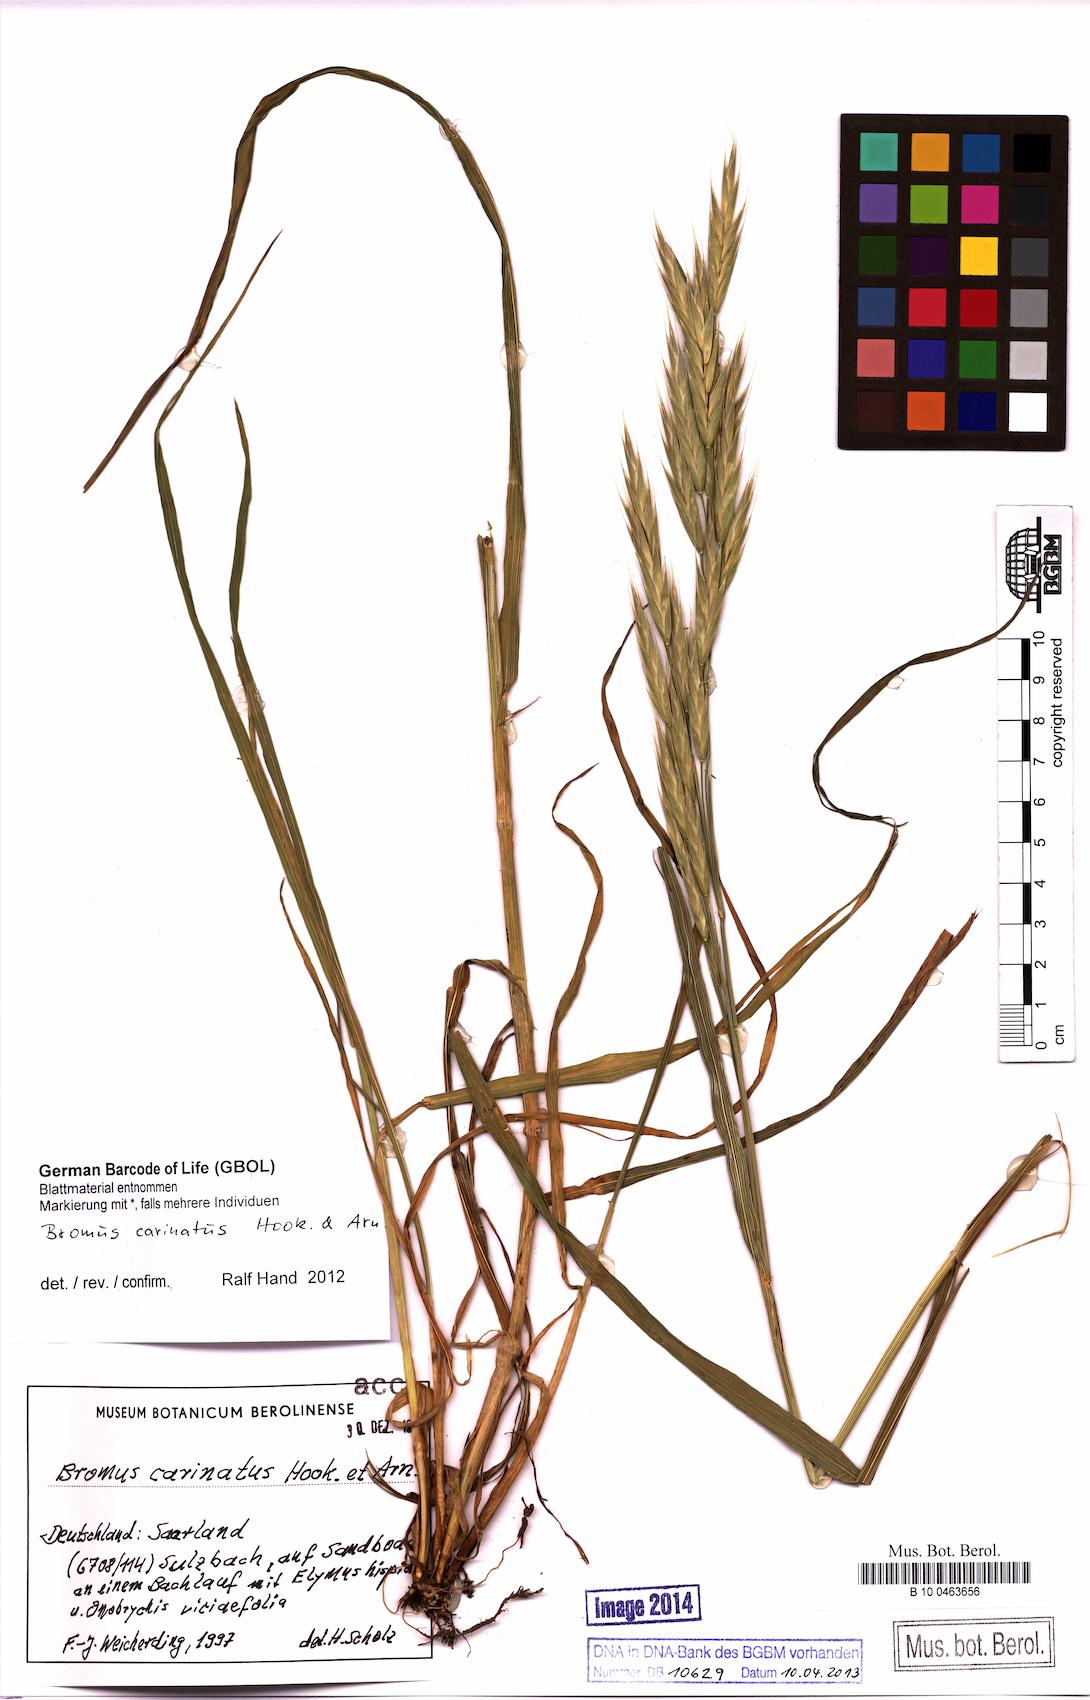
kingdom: Plantae
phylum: Tracheophyta
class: Liliopsida
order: Poales
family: Poaceae
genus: Bromus
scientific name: Bromus carinatus
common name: Mountain brome
